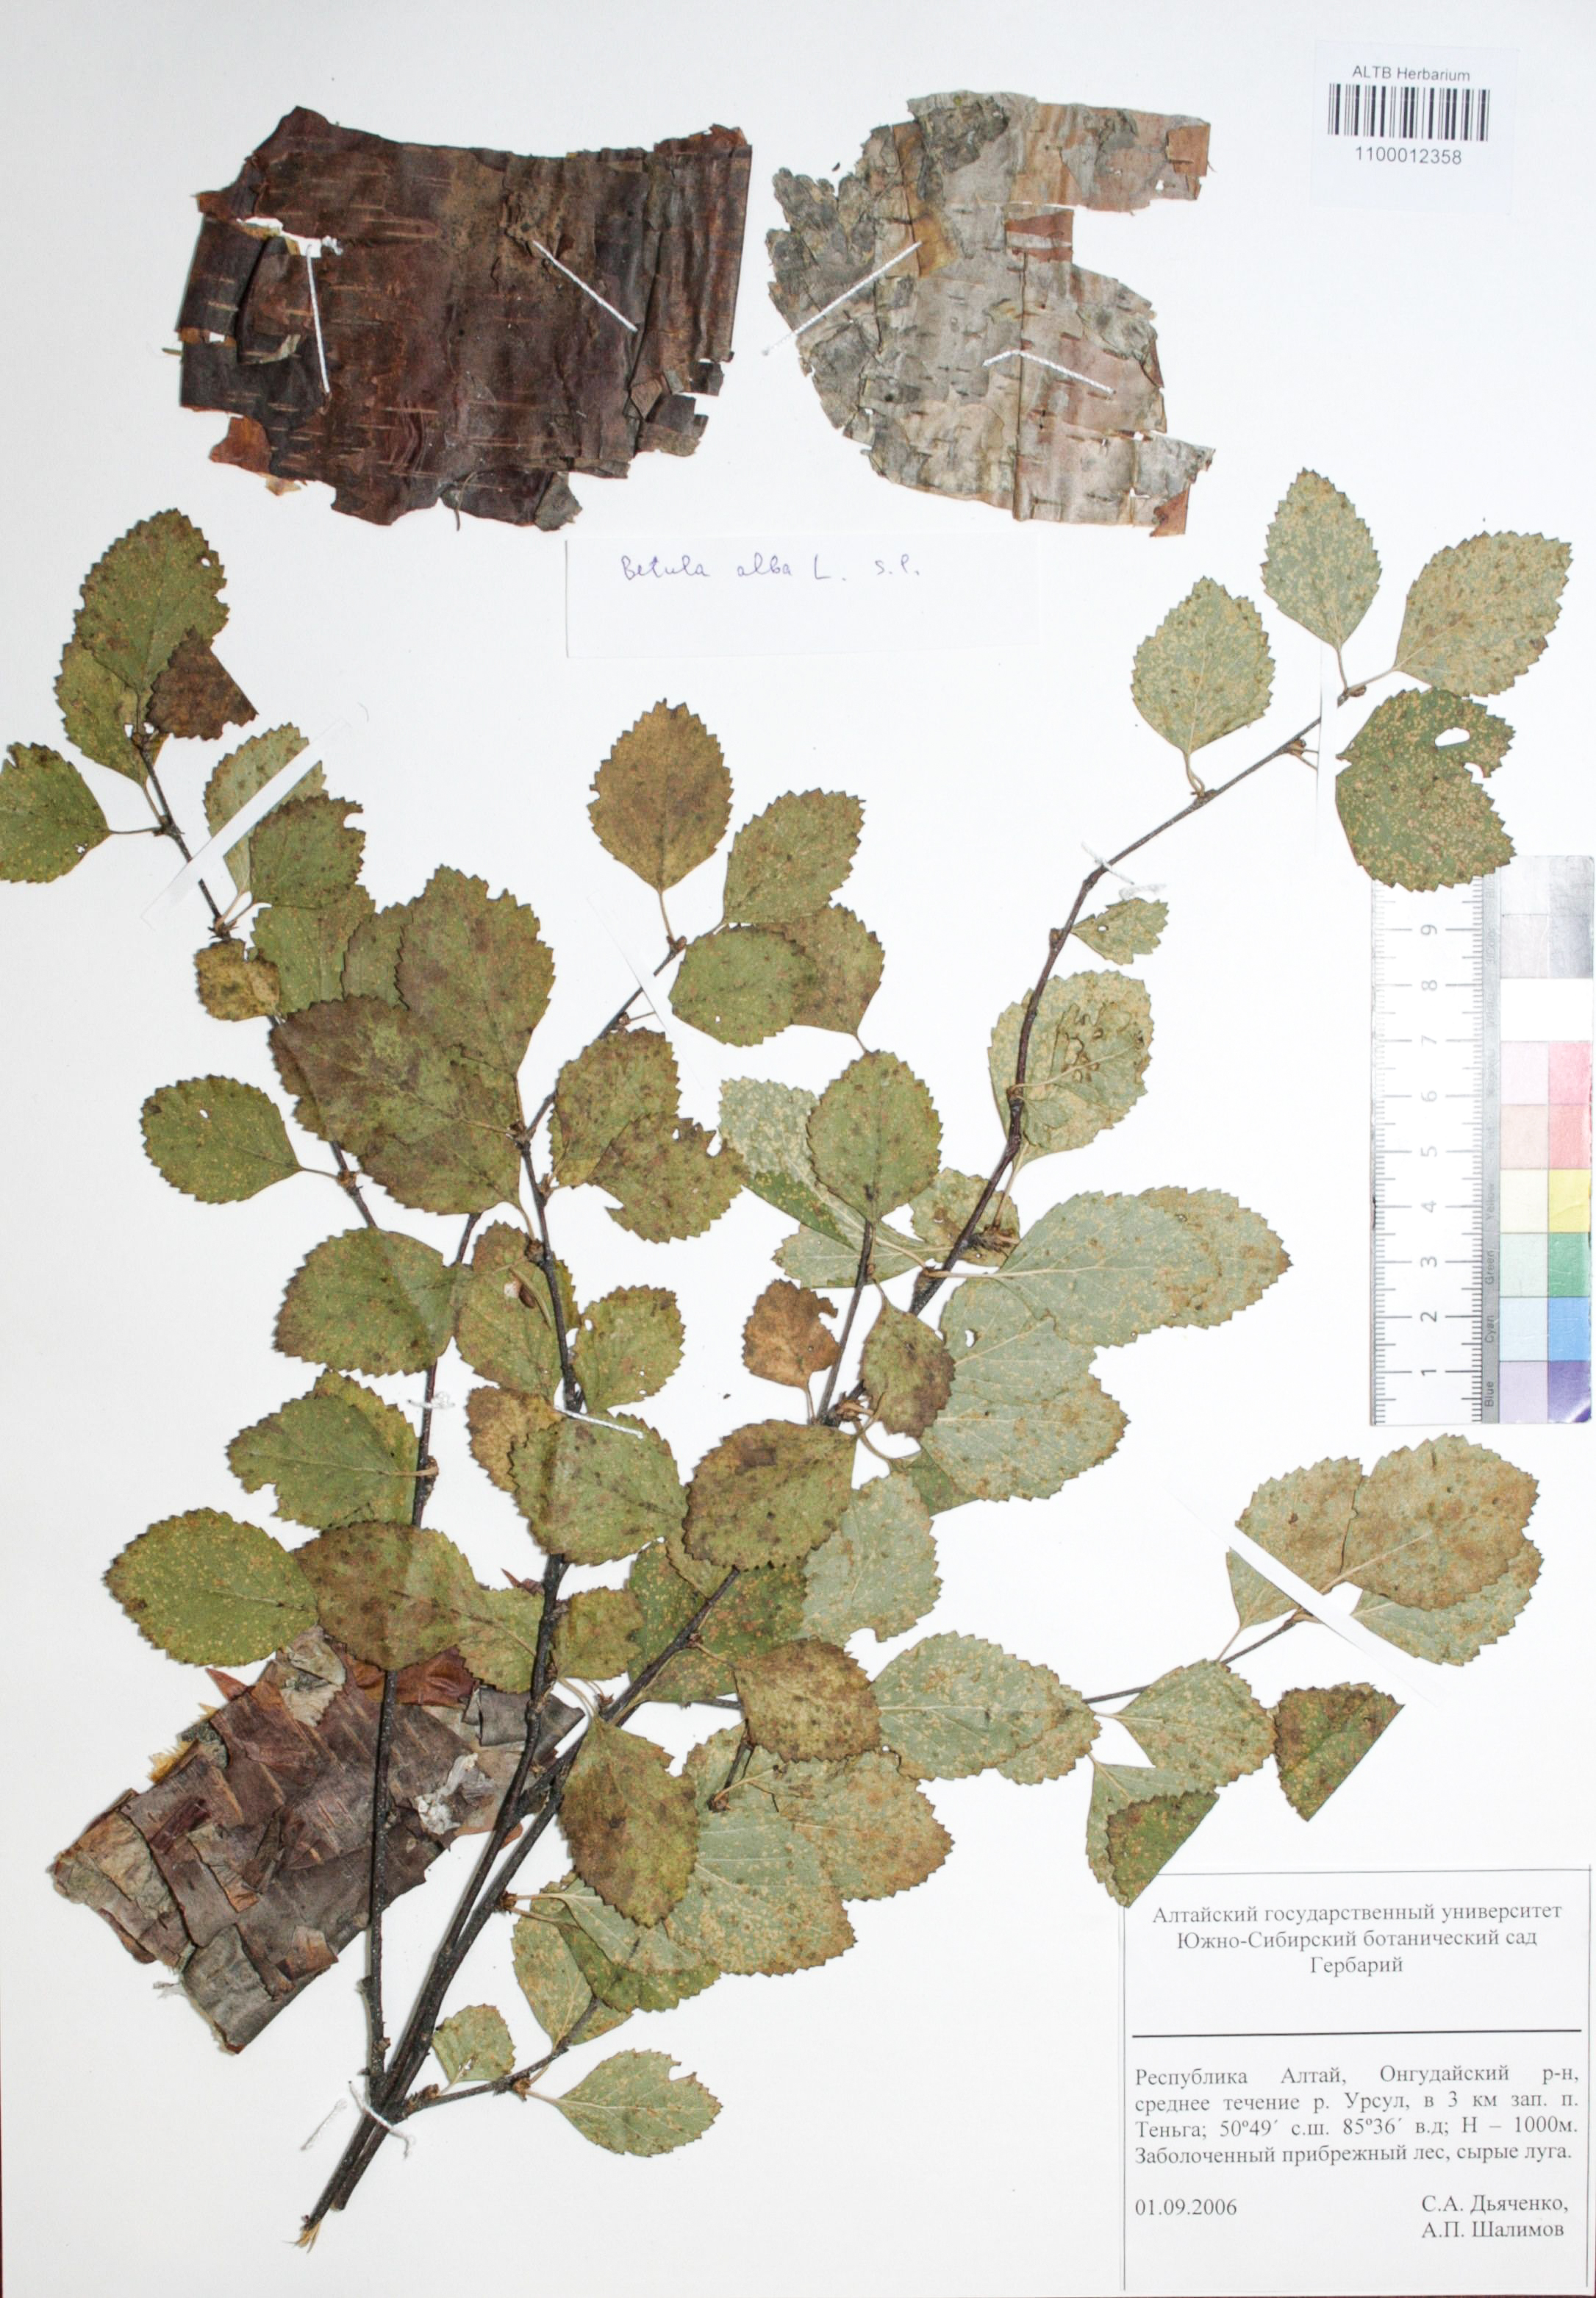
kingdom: Plantae
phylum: Tracheophyta
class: Magnoliopsida
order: Fagales
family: Betulaceae
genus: Betula
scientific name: Betula pubescens
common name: Downy birch
